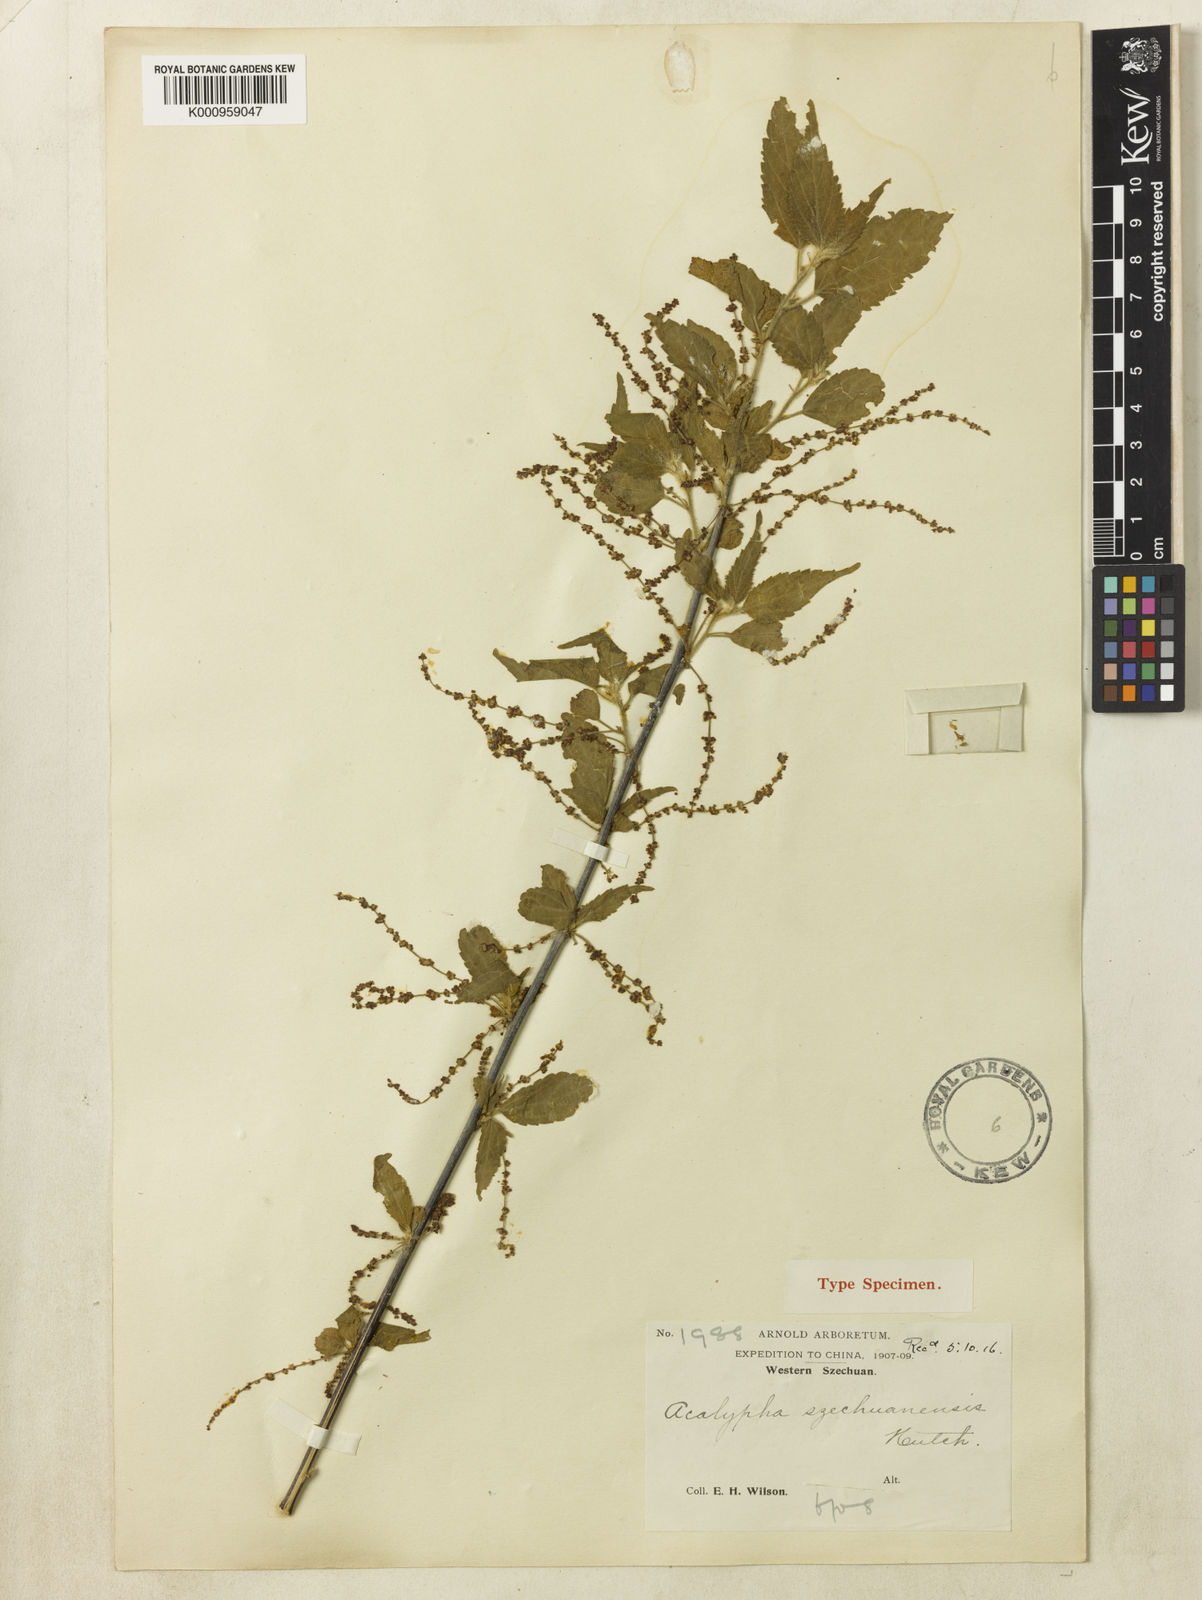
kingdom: Plantae
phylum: Tracheophyta
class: Magnoliopsida
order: Malpighiales
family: Euphorbiaceae
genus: Acalypha
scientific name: Acalypha acmophylla
